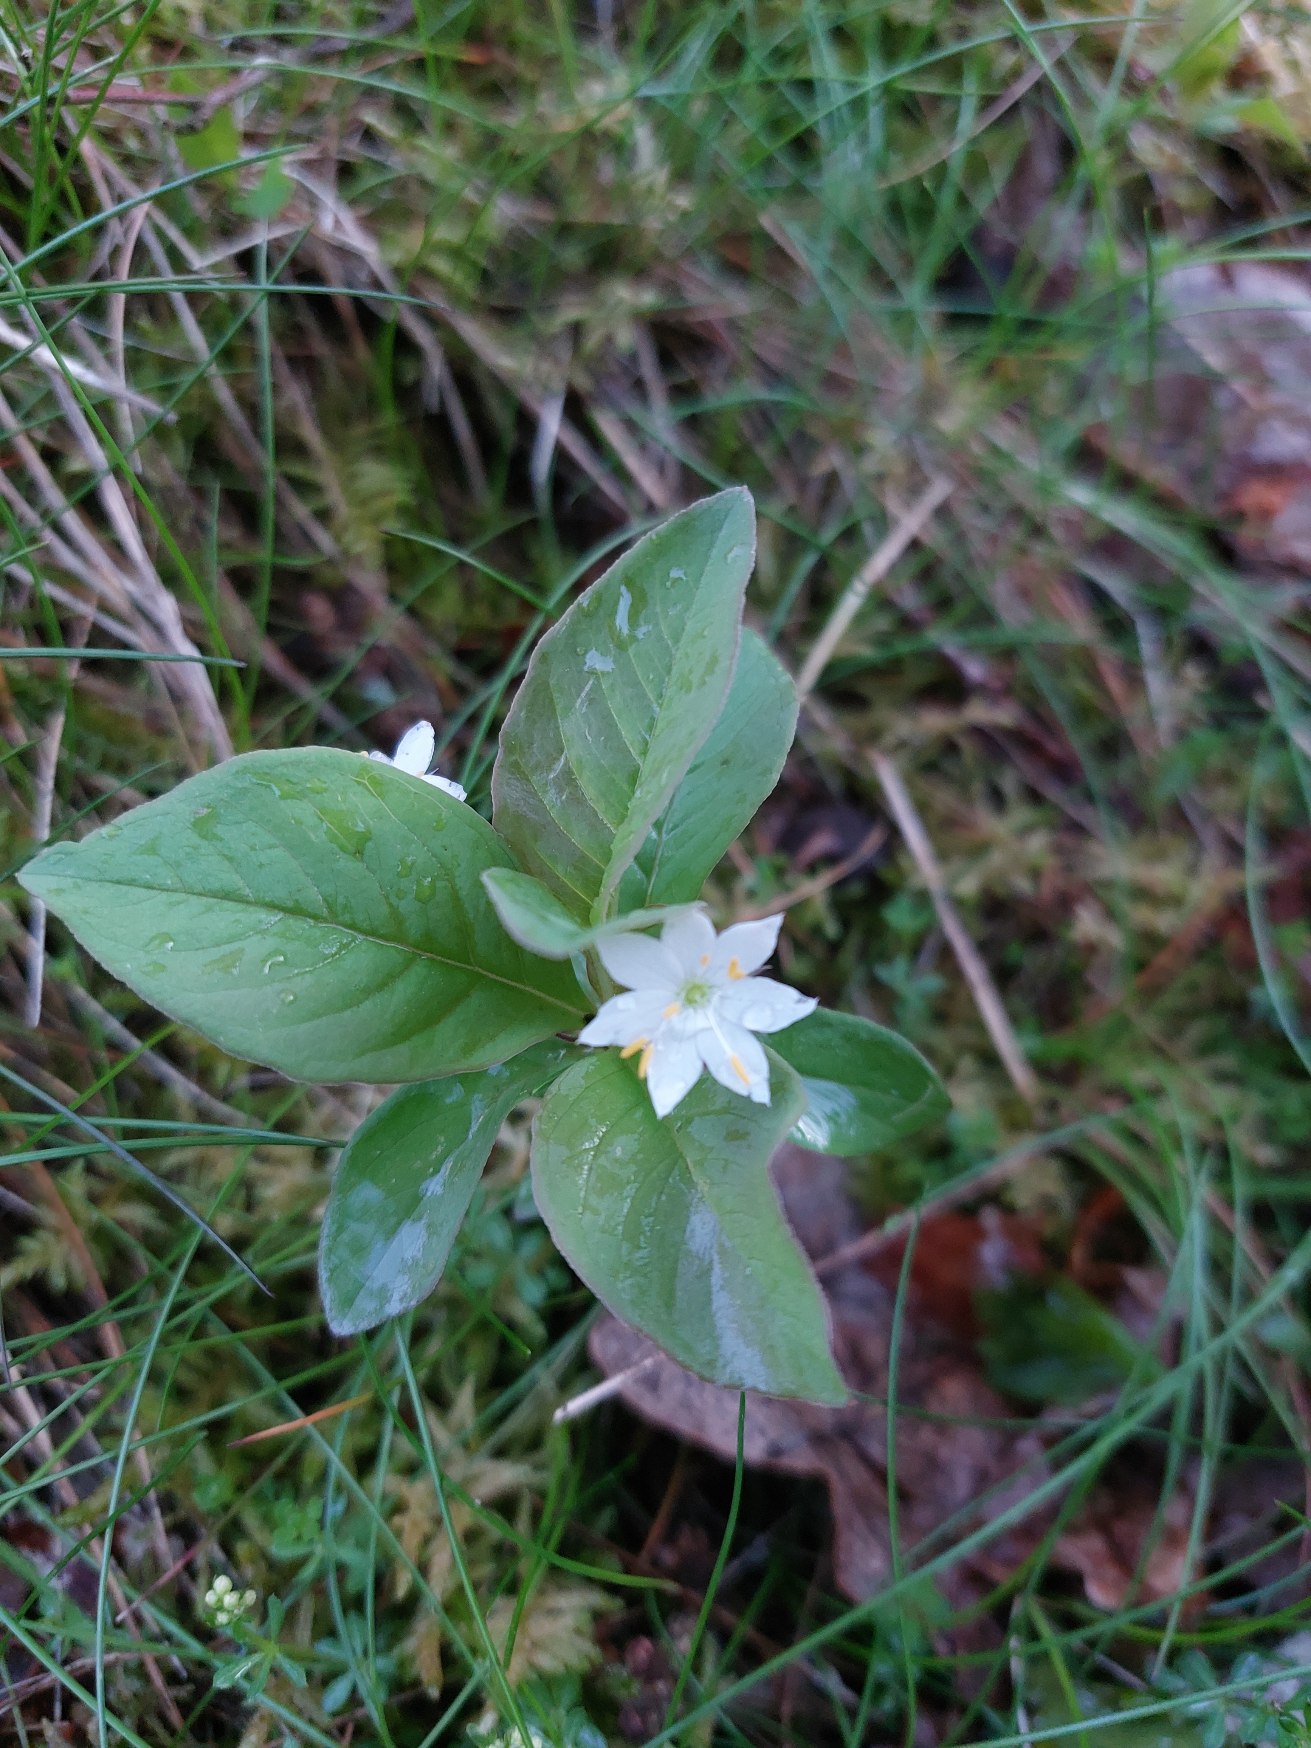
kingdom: Plantae
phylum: Tracheophyta
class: Magnoliopsida
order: Ericales
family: Primulaceae
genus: Lysimachia
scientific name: Lysimachia europaea
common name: Skovstjerne
